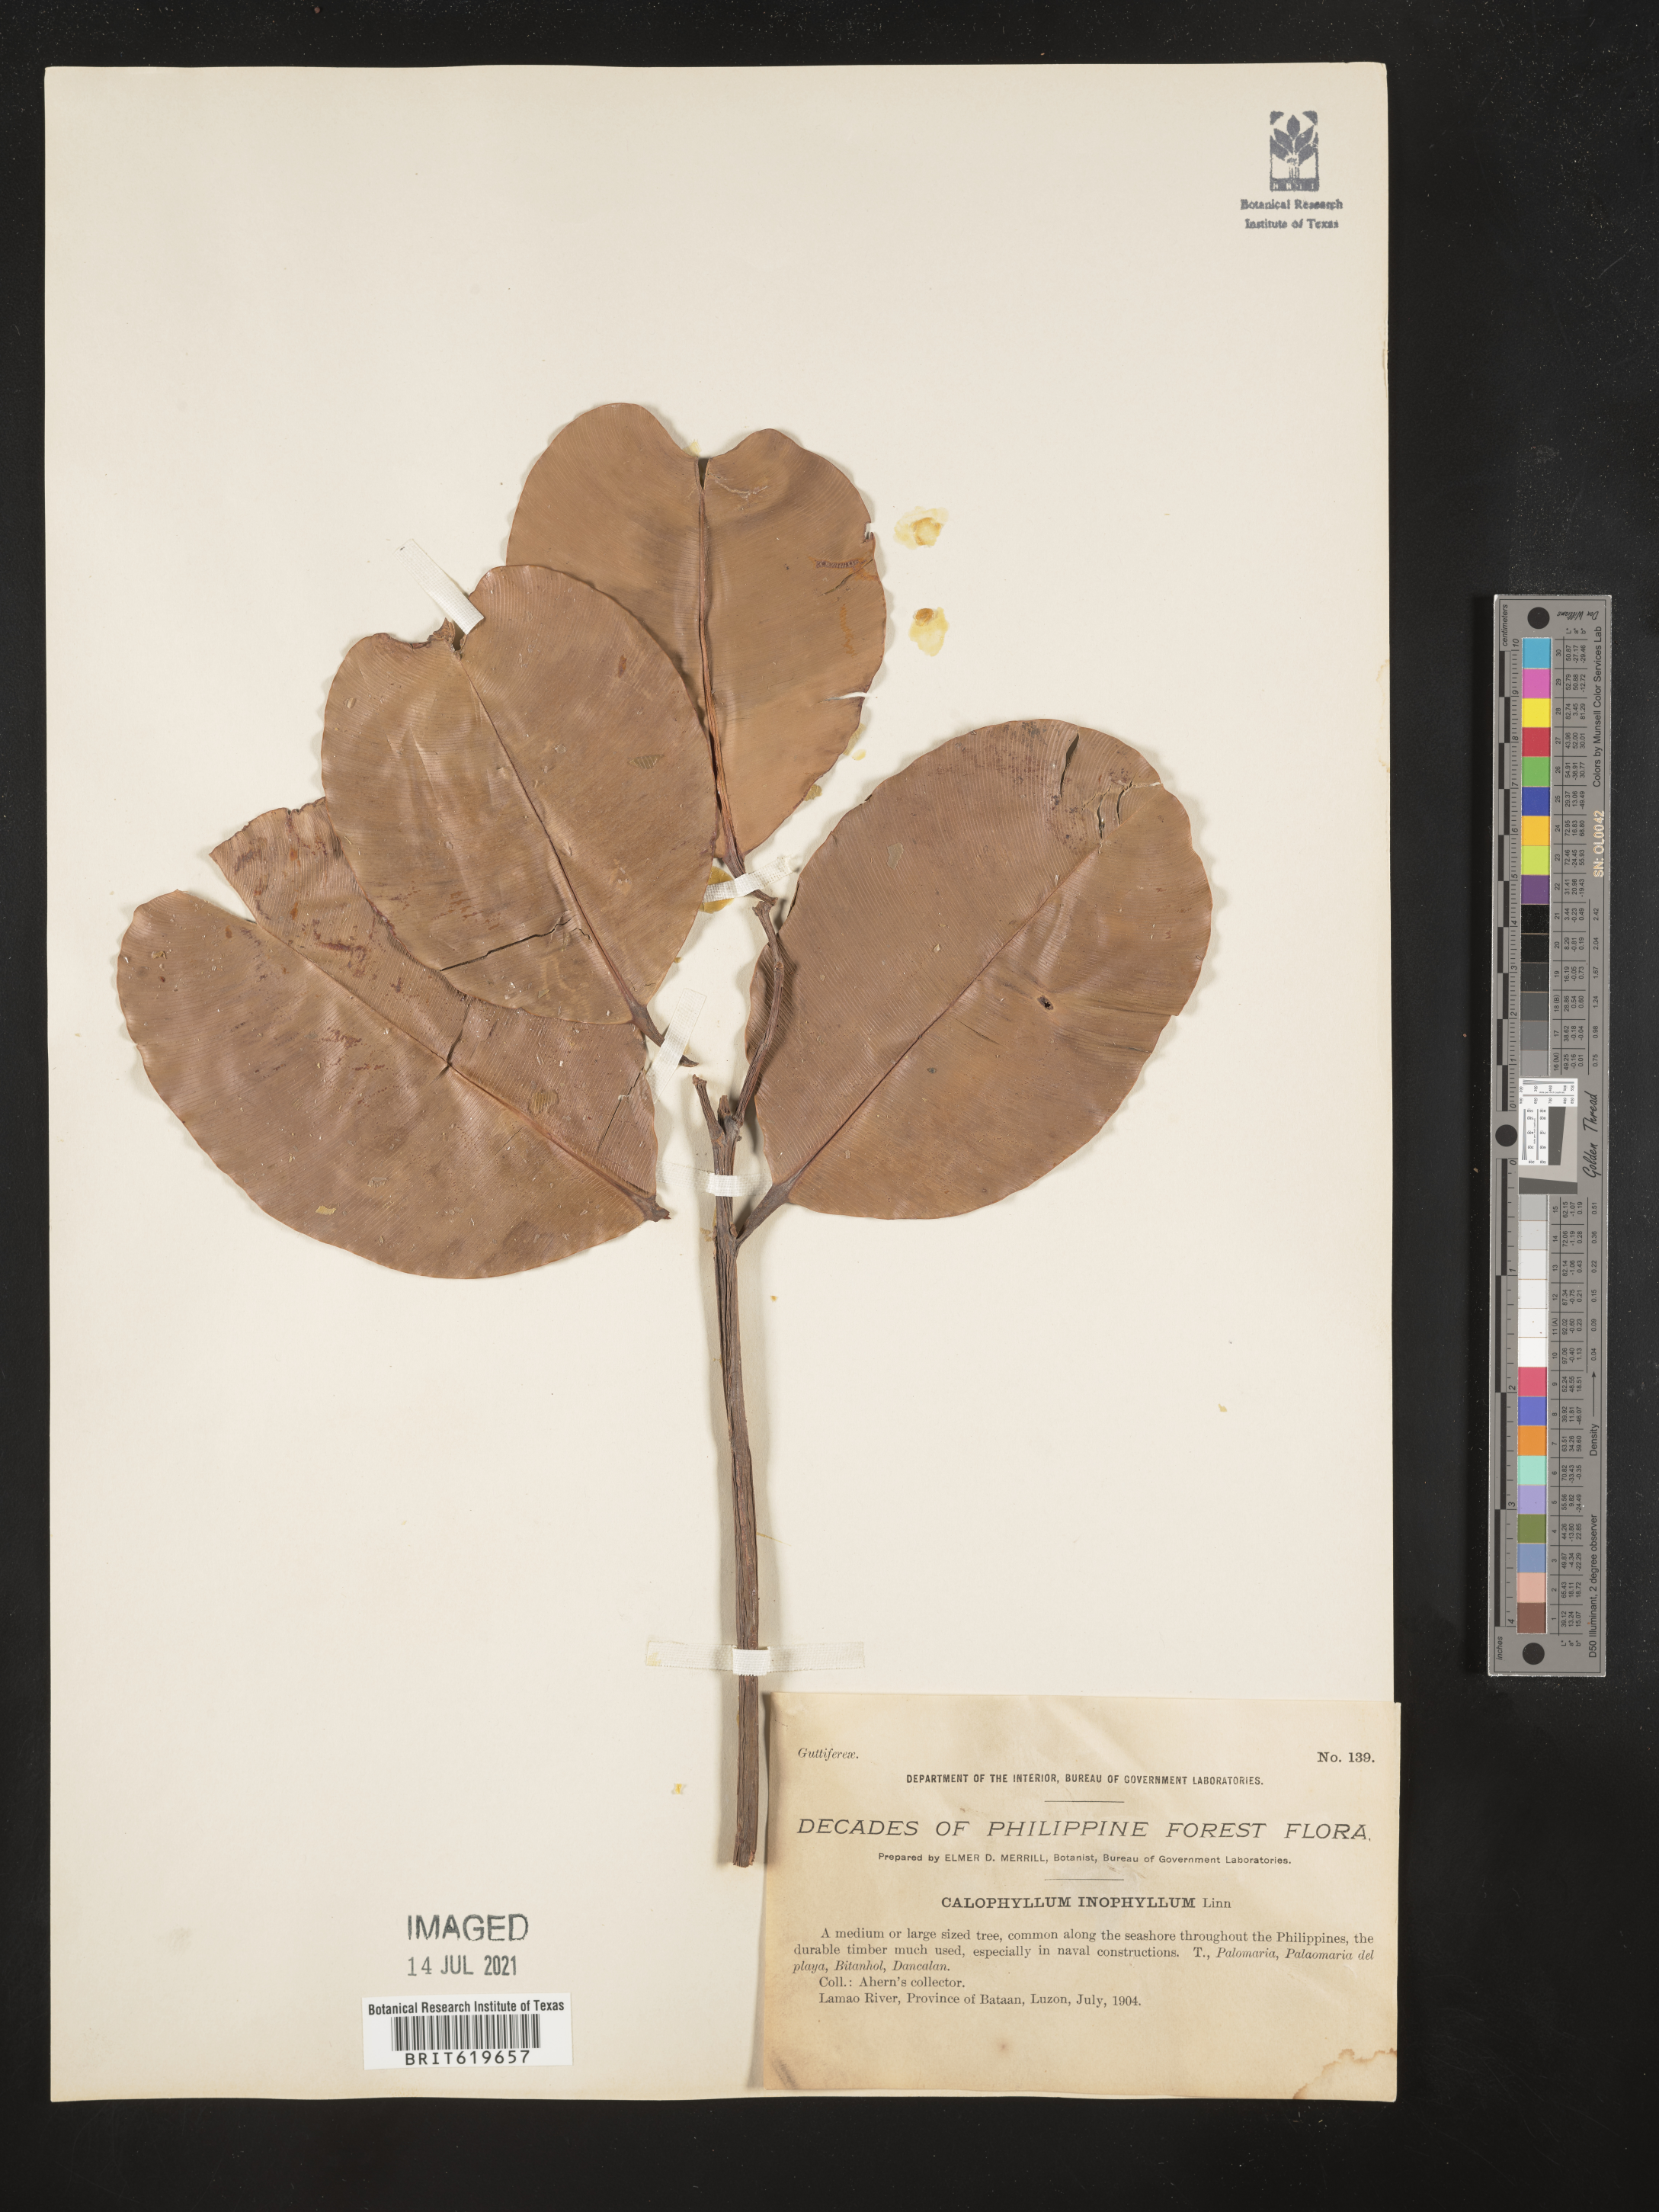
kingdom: Plantae
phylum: Tracheophyta
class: Magnoliopsida
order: Malpighiales
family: Calophyllaceae
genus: Calophyllum
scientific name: Calophyllum inophyllum
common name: Alexandrian laurel
